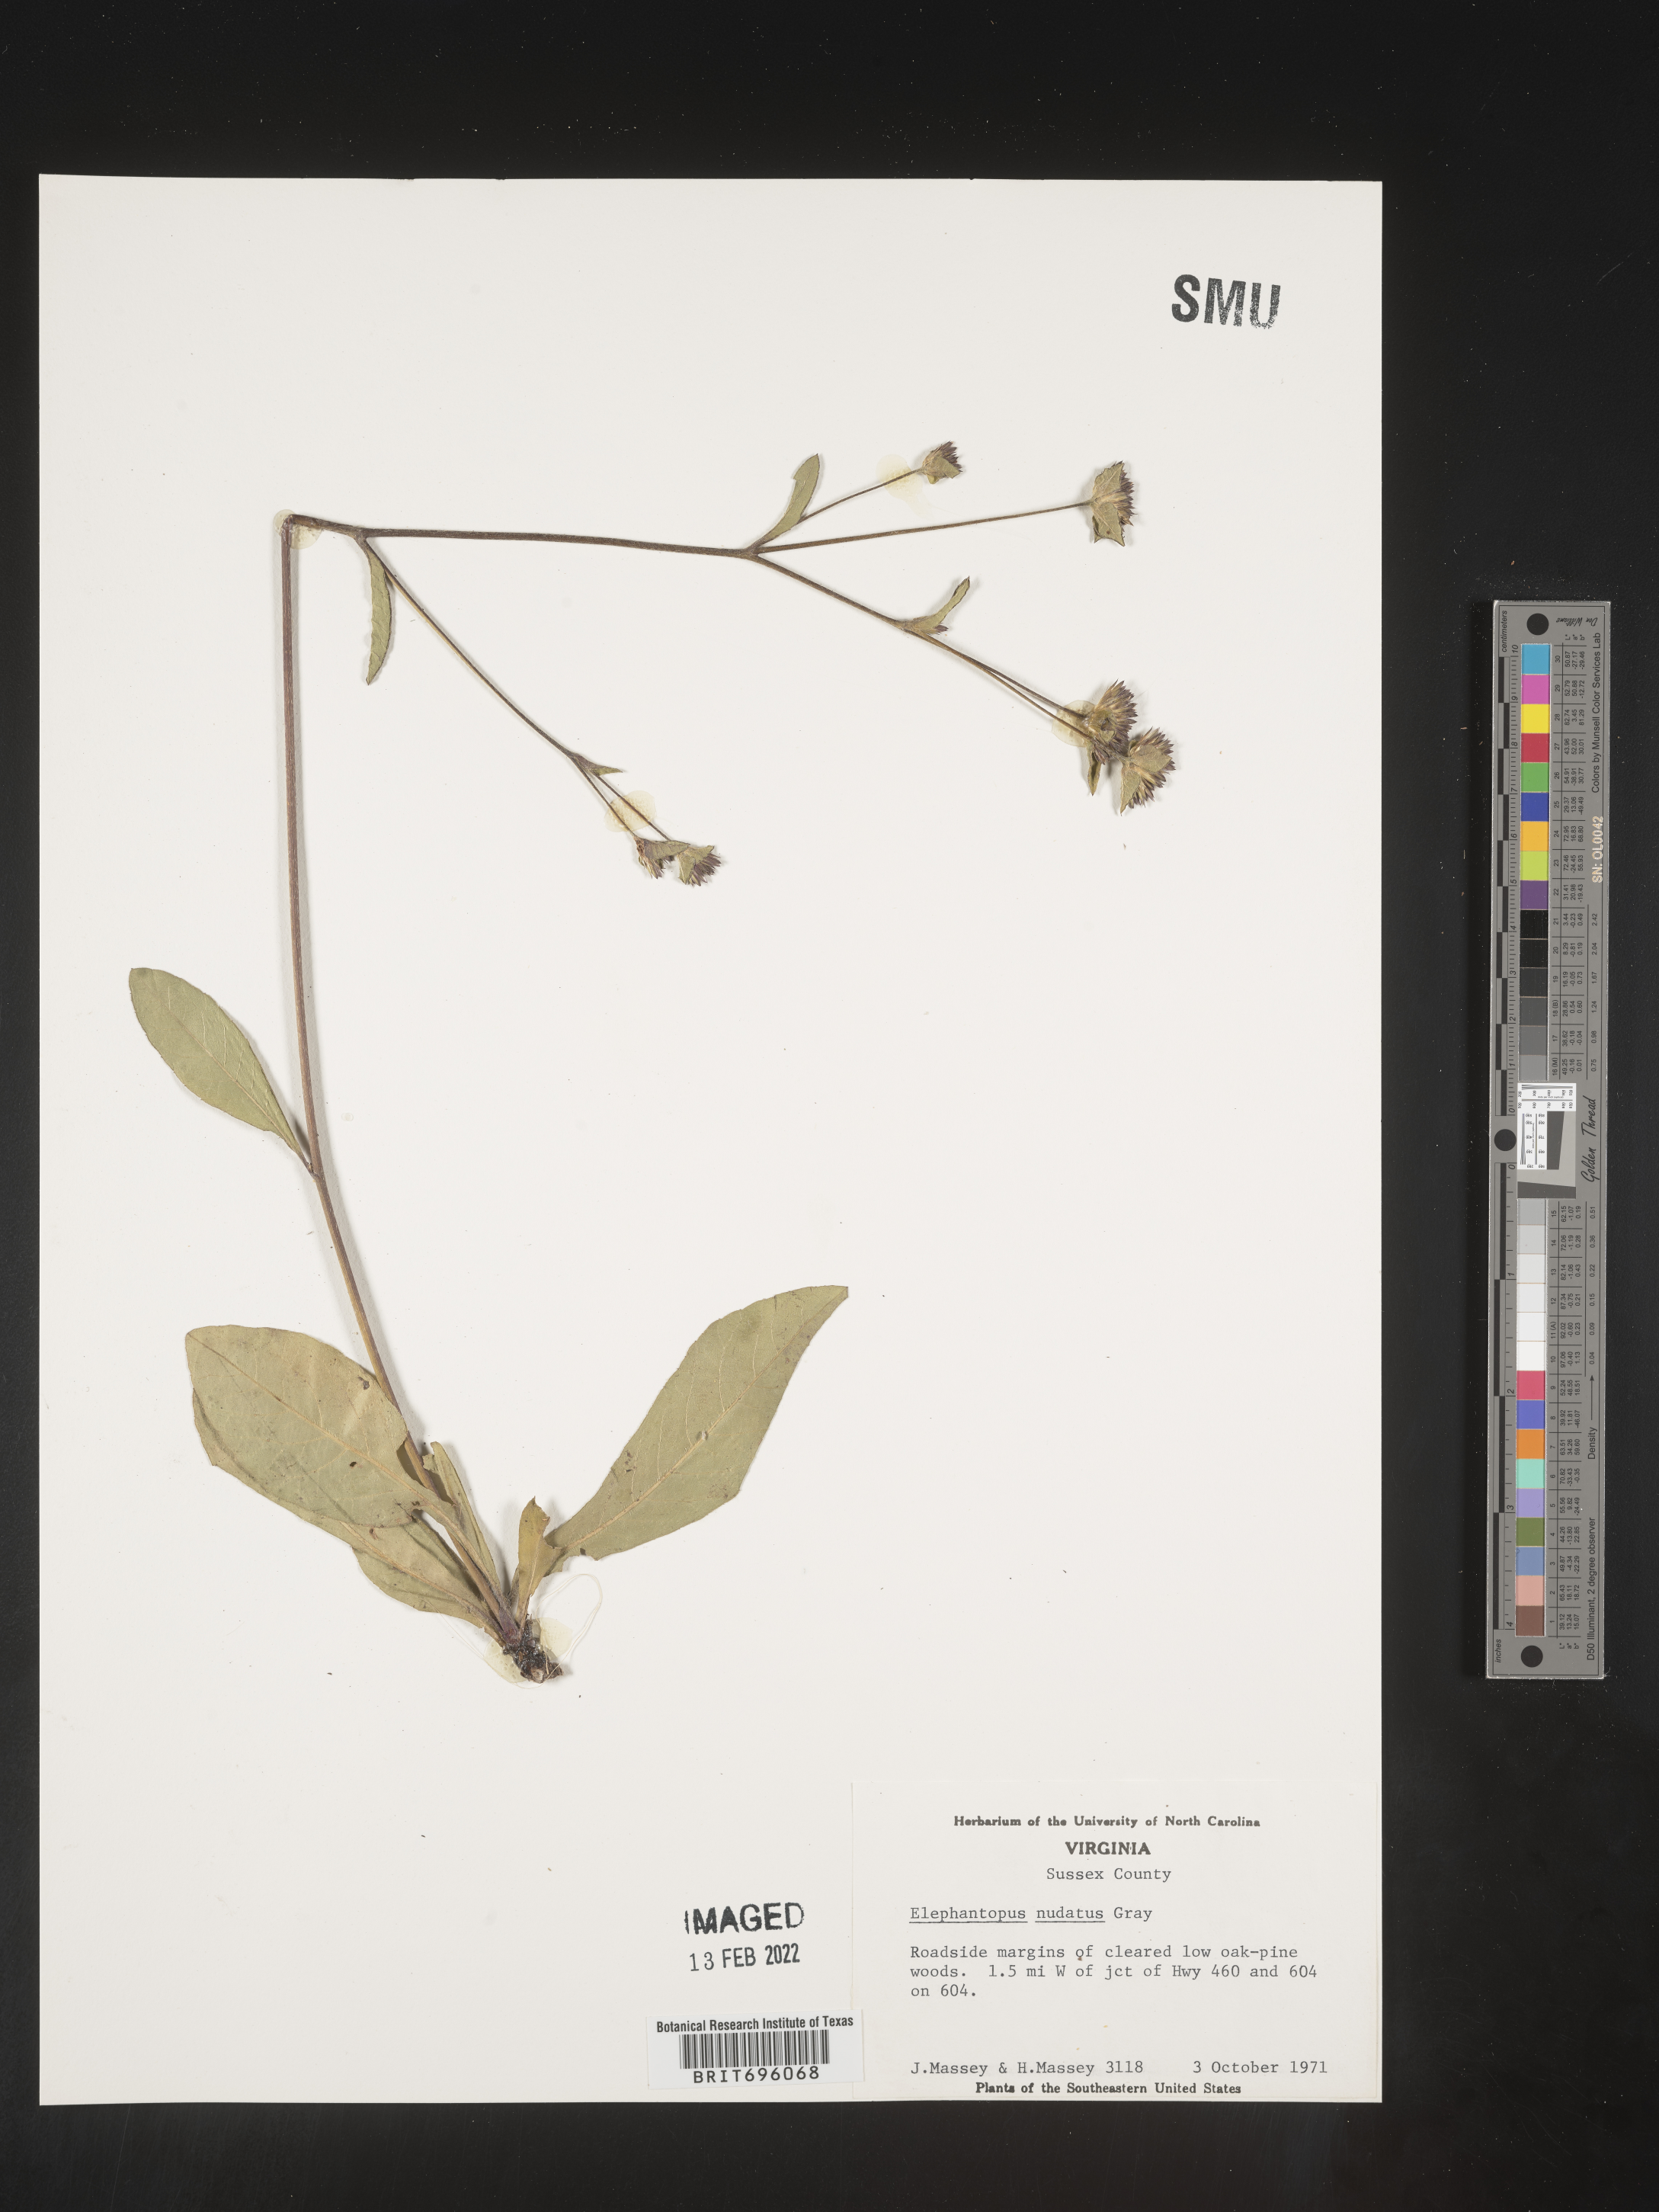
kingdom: Plantae
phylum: Tracheophyta
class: Magnoliopsida
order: Asterales
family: Asteraceae
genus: Elephantopus
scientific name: Elephantopus nudatus
